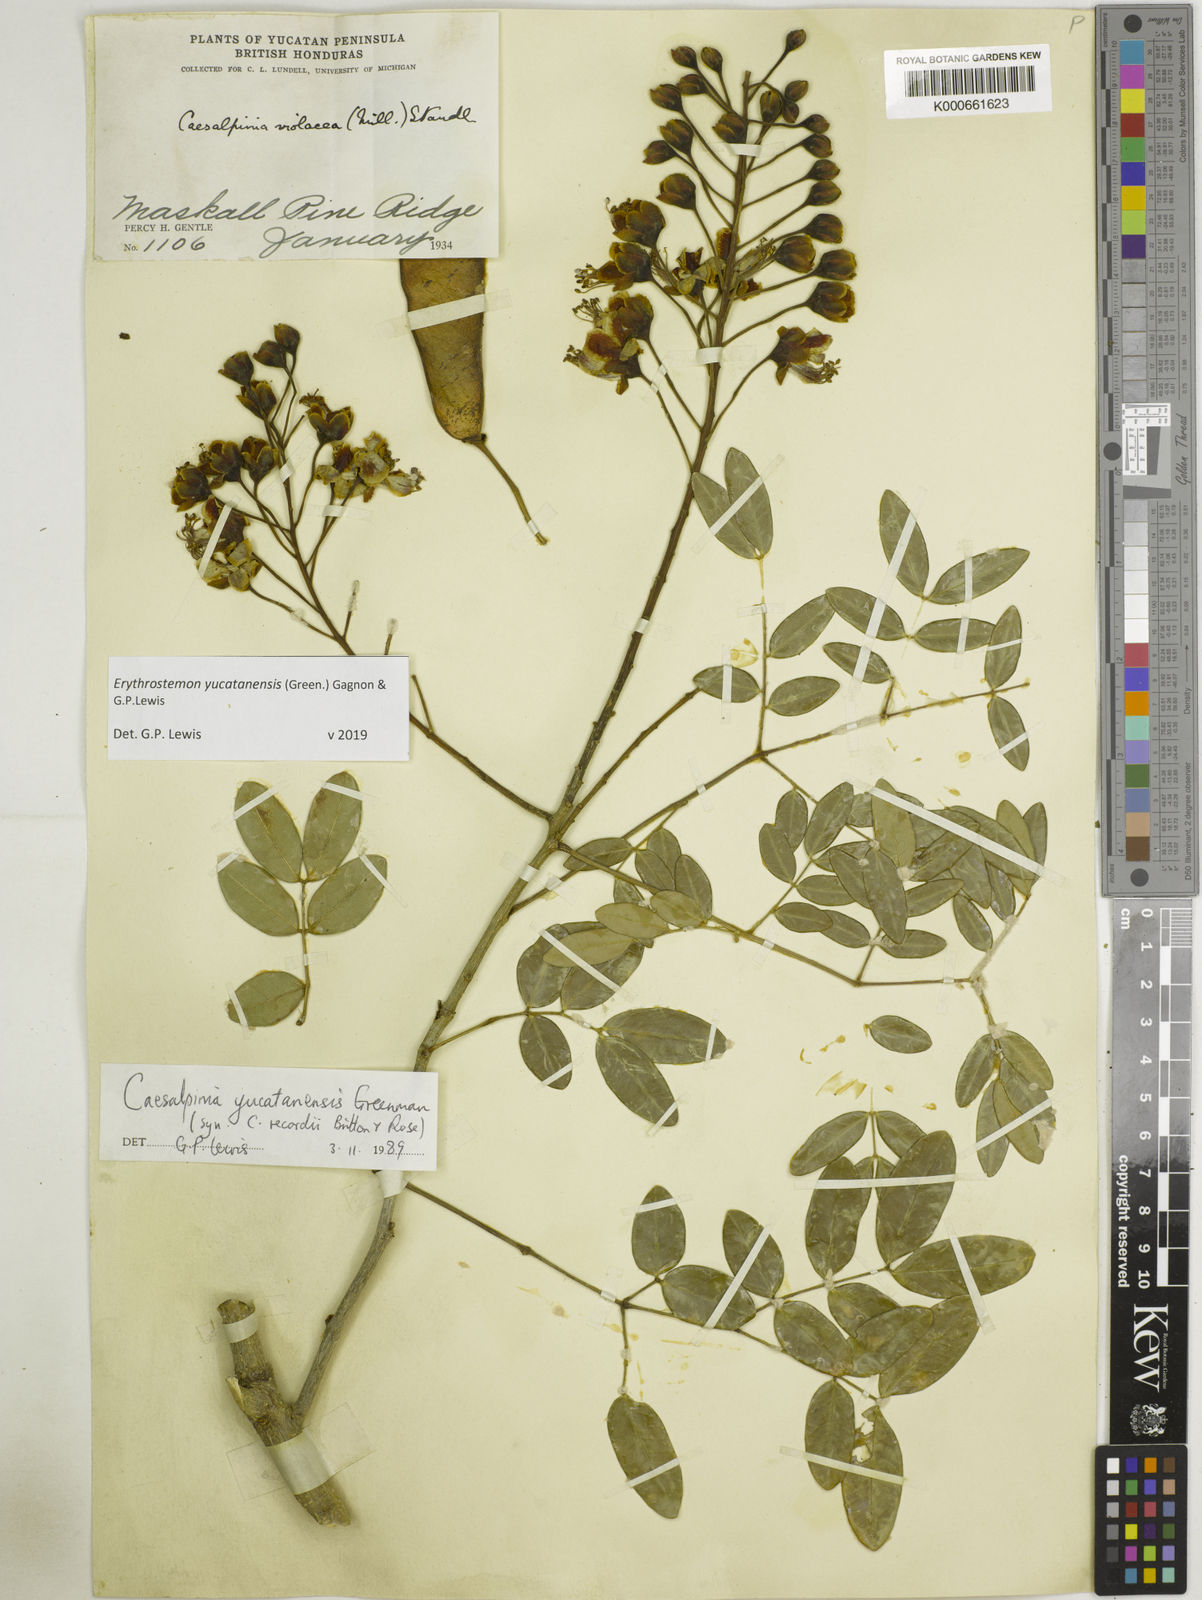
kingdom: Plantae
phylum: Tracheophyta
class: Magnoliopsida
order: Fabales
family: Fabaceae
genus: Caesalpinia
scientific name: Caesalpinia
